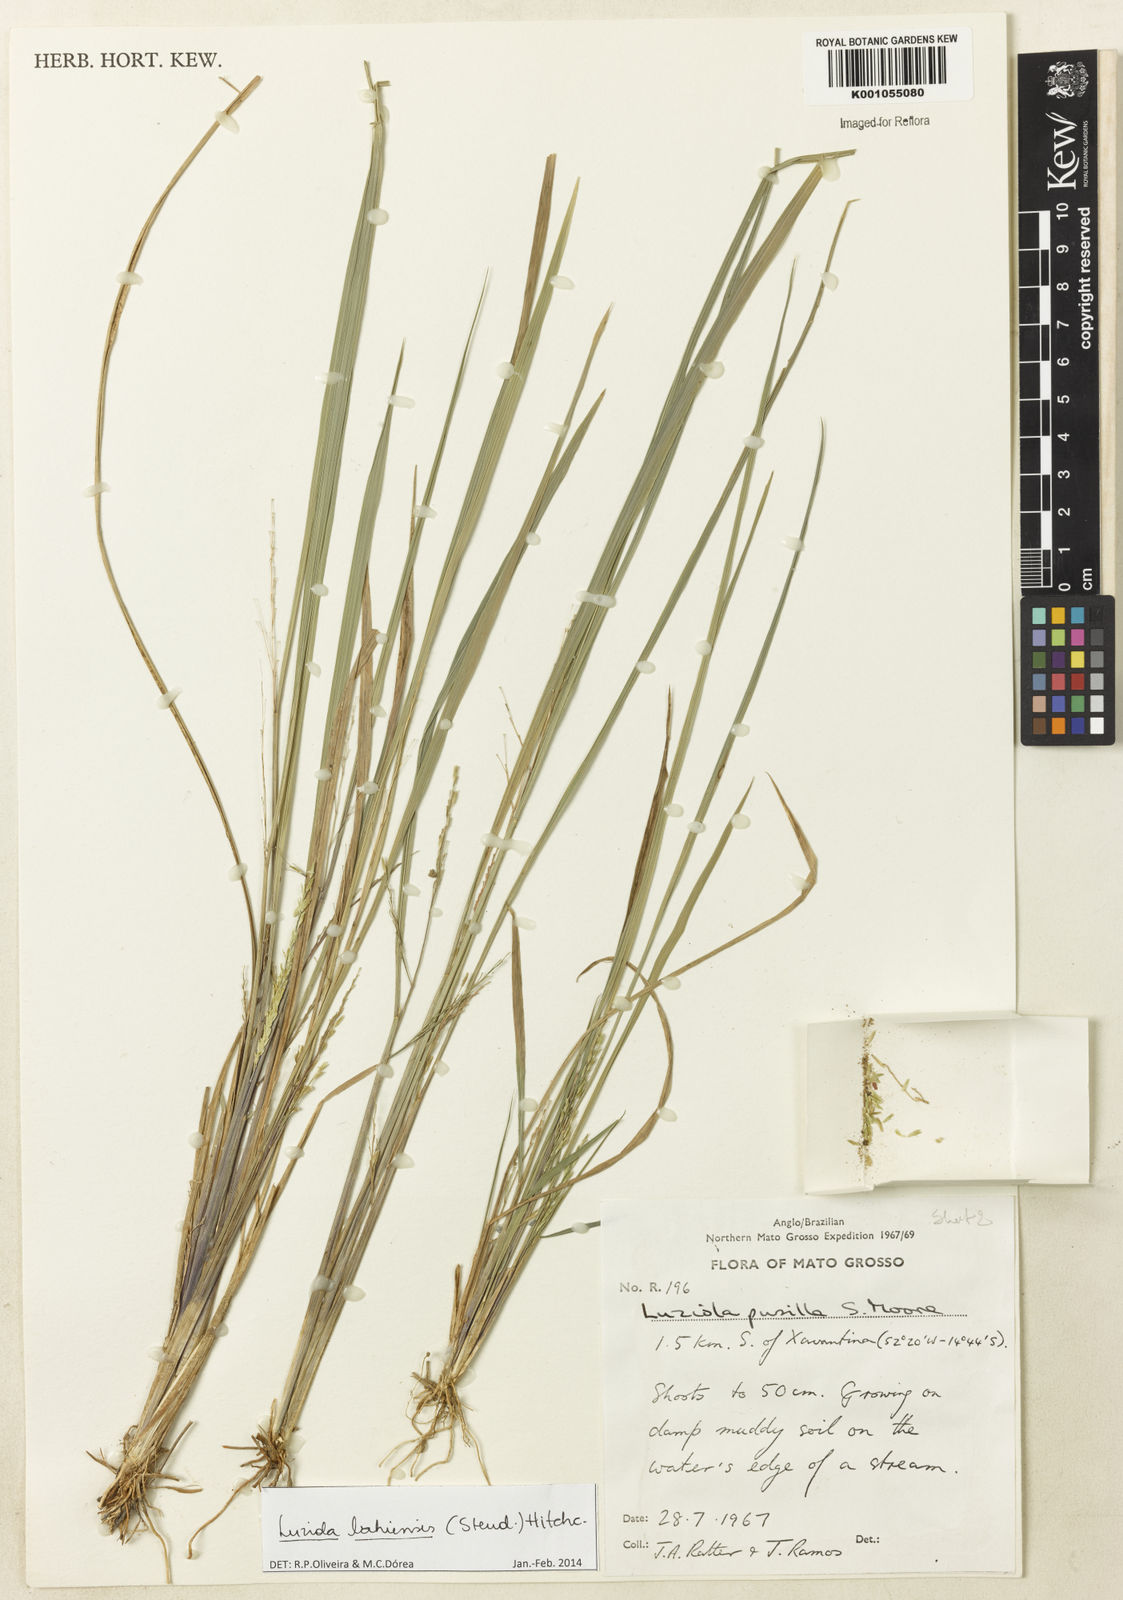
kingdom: Plantae
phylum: Tracheophyta
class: Liliopsida
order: Poales
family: Poaceae
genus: Luziola
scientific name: Luziola bahiensis
